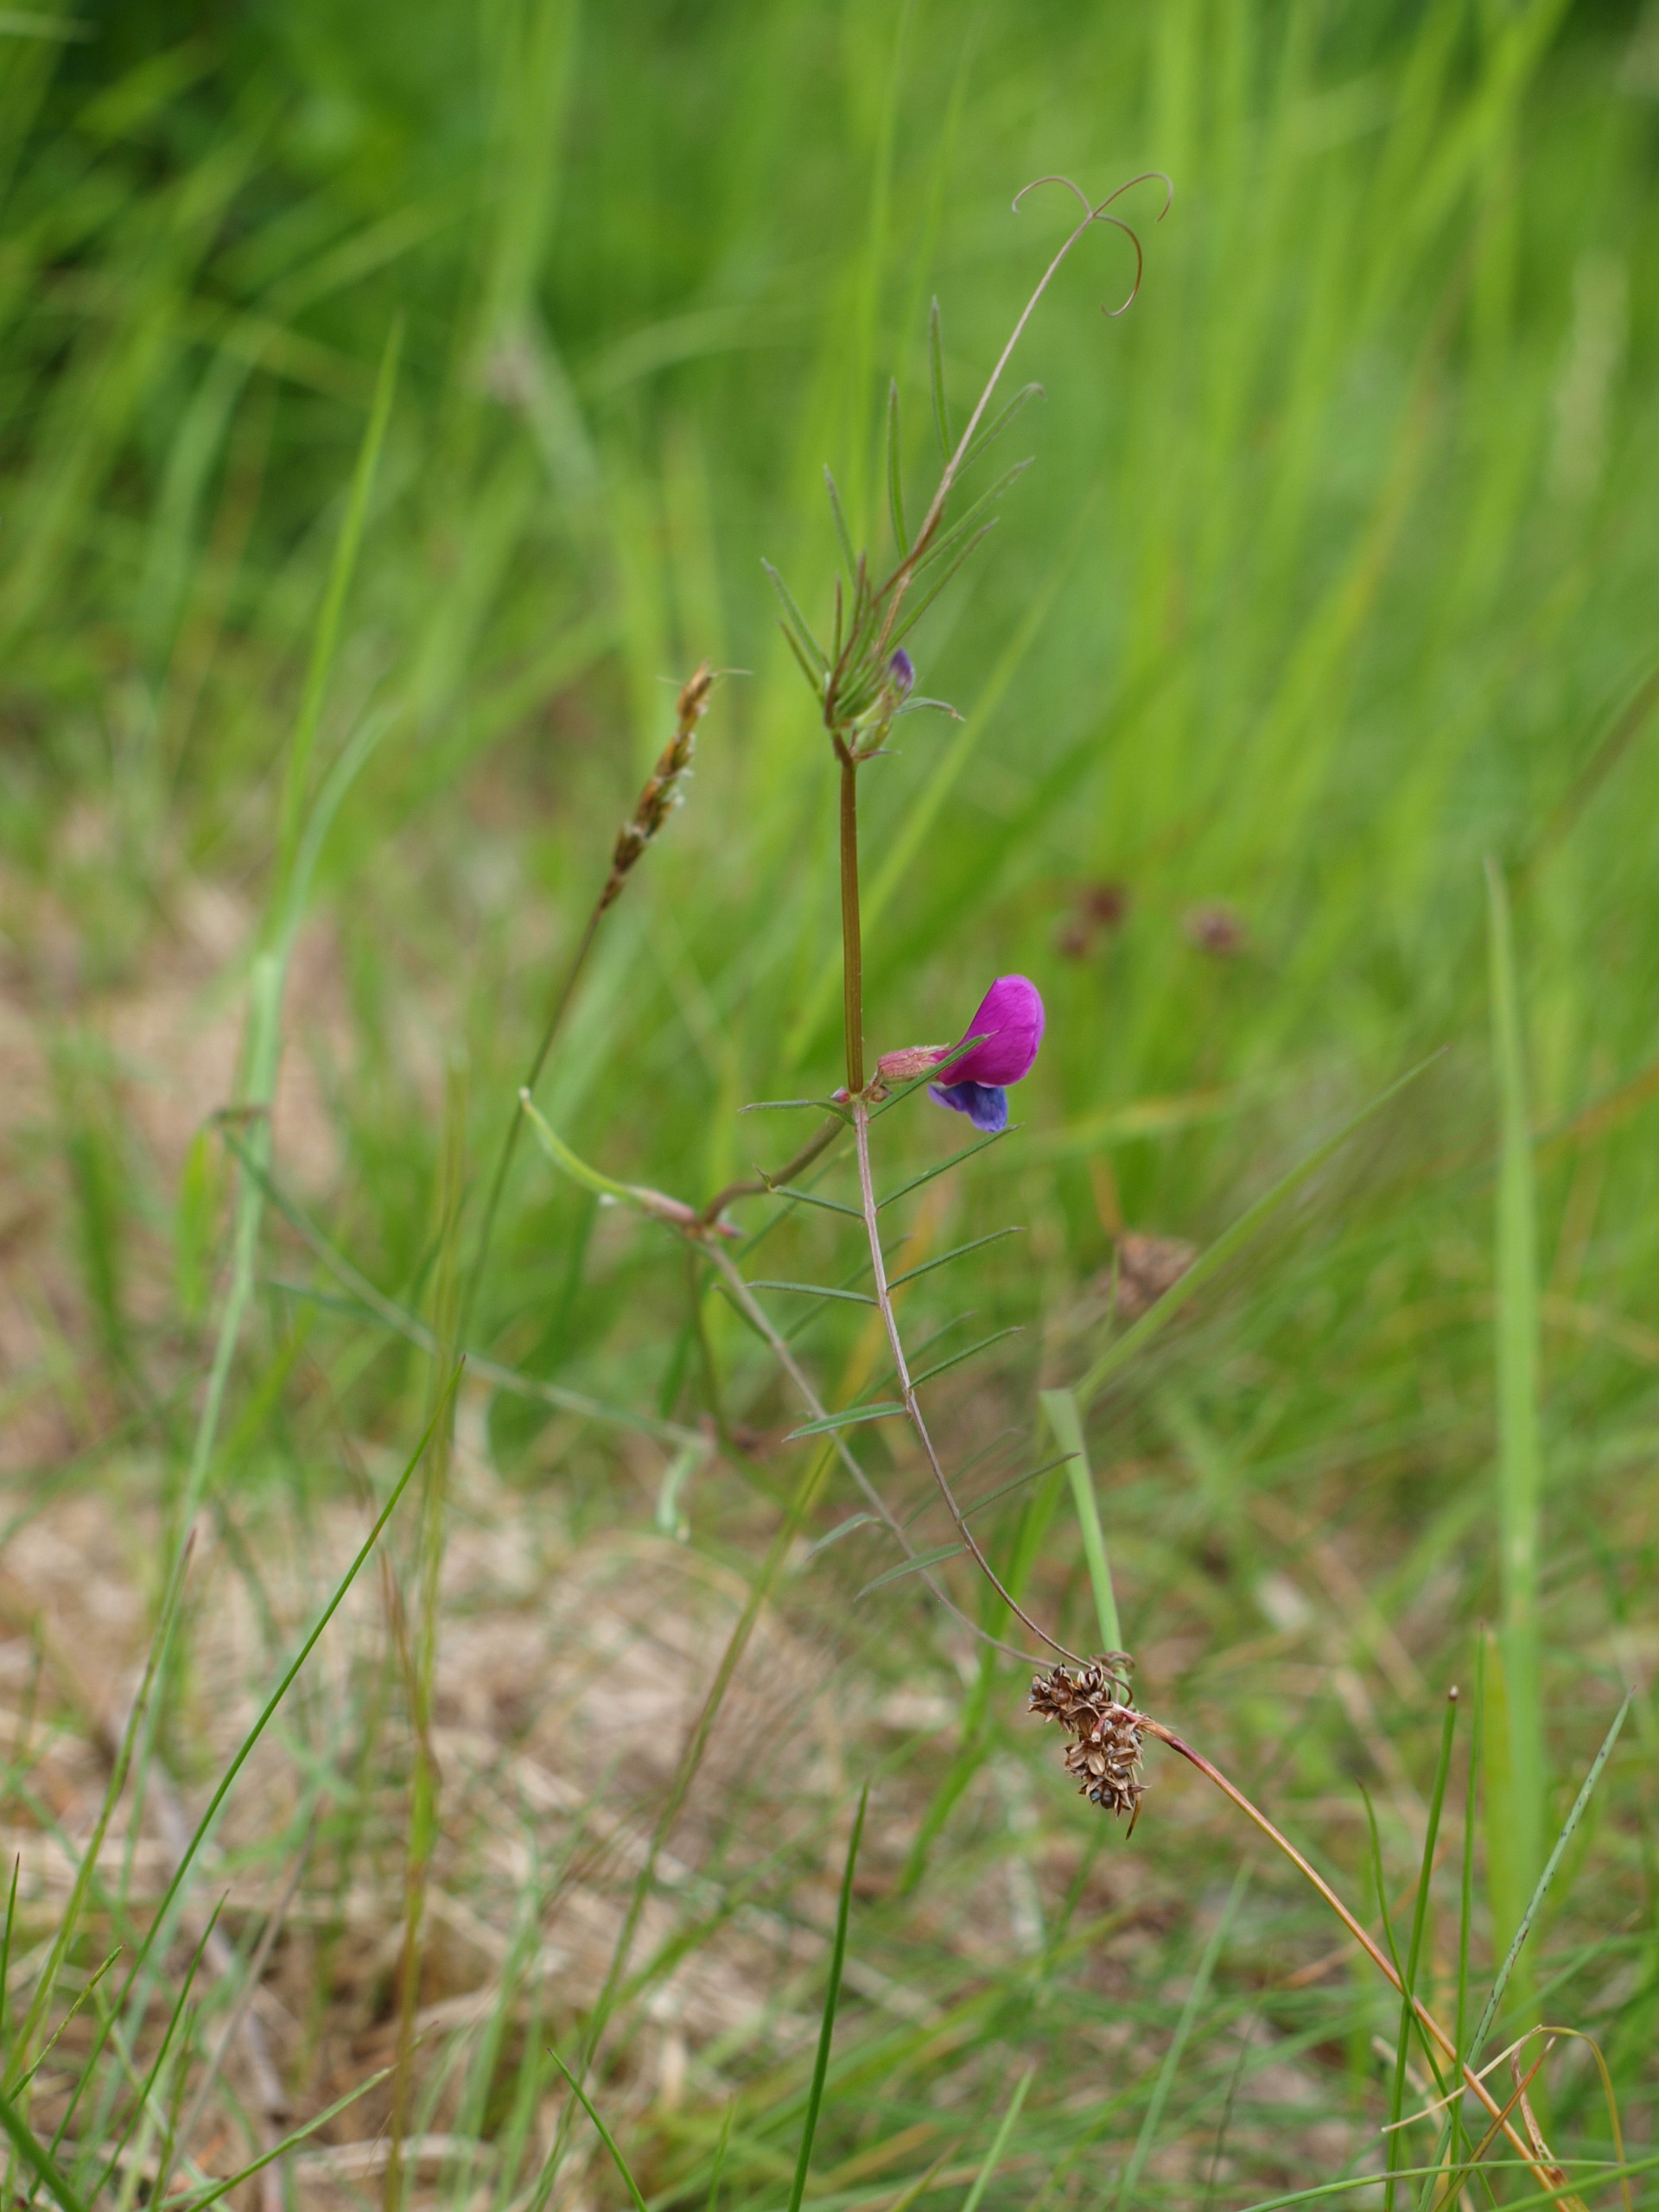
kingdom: Plantae
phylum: Tracheophyta
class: Magnoliopsida
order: Fabales
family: Fabaceae
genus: Vicia
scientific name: Vicia sativa
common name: Smalbladet vikke
